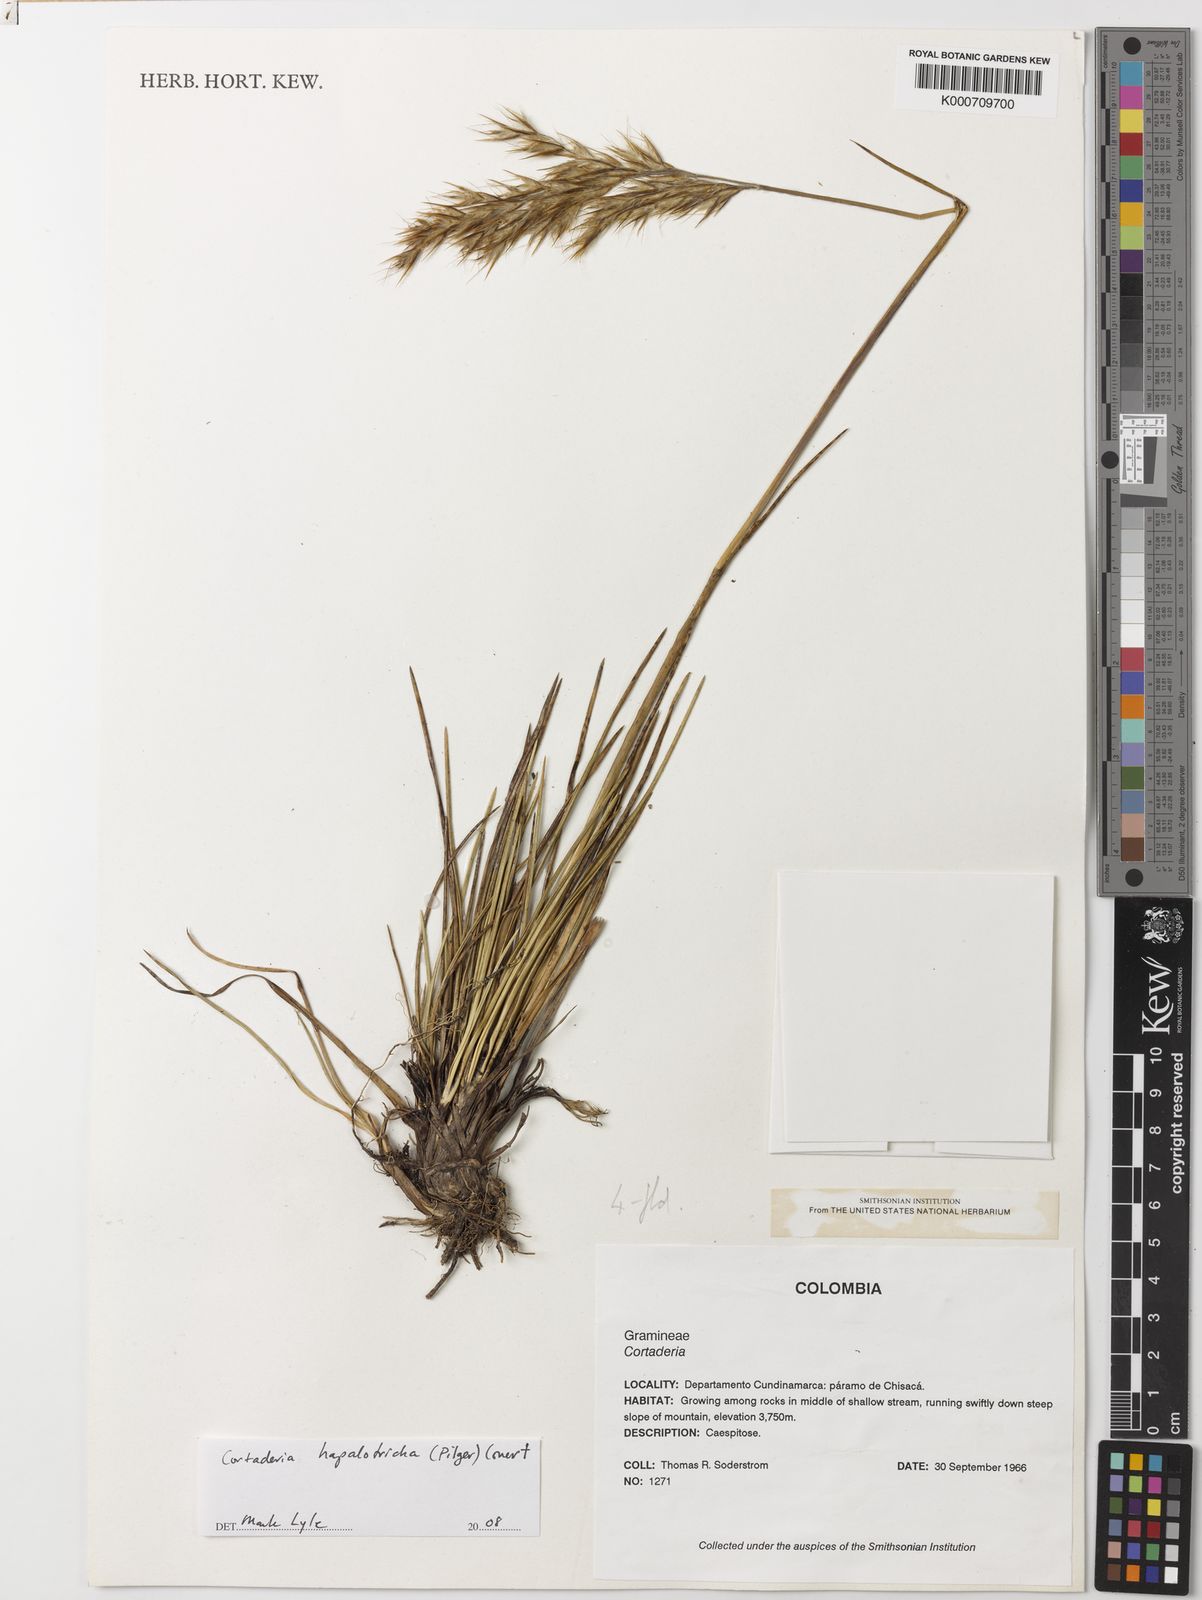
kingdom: Plantae
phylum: Tracheophyta
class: Liliopsida
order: Poales
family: Poaceae
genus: Cortaderia
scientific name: Cortaderia hapalotricha
